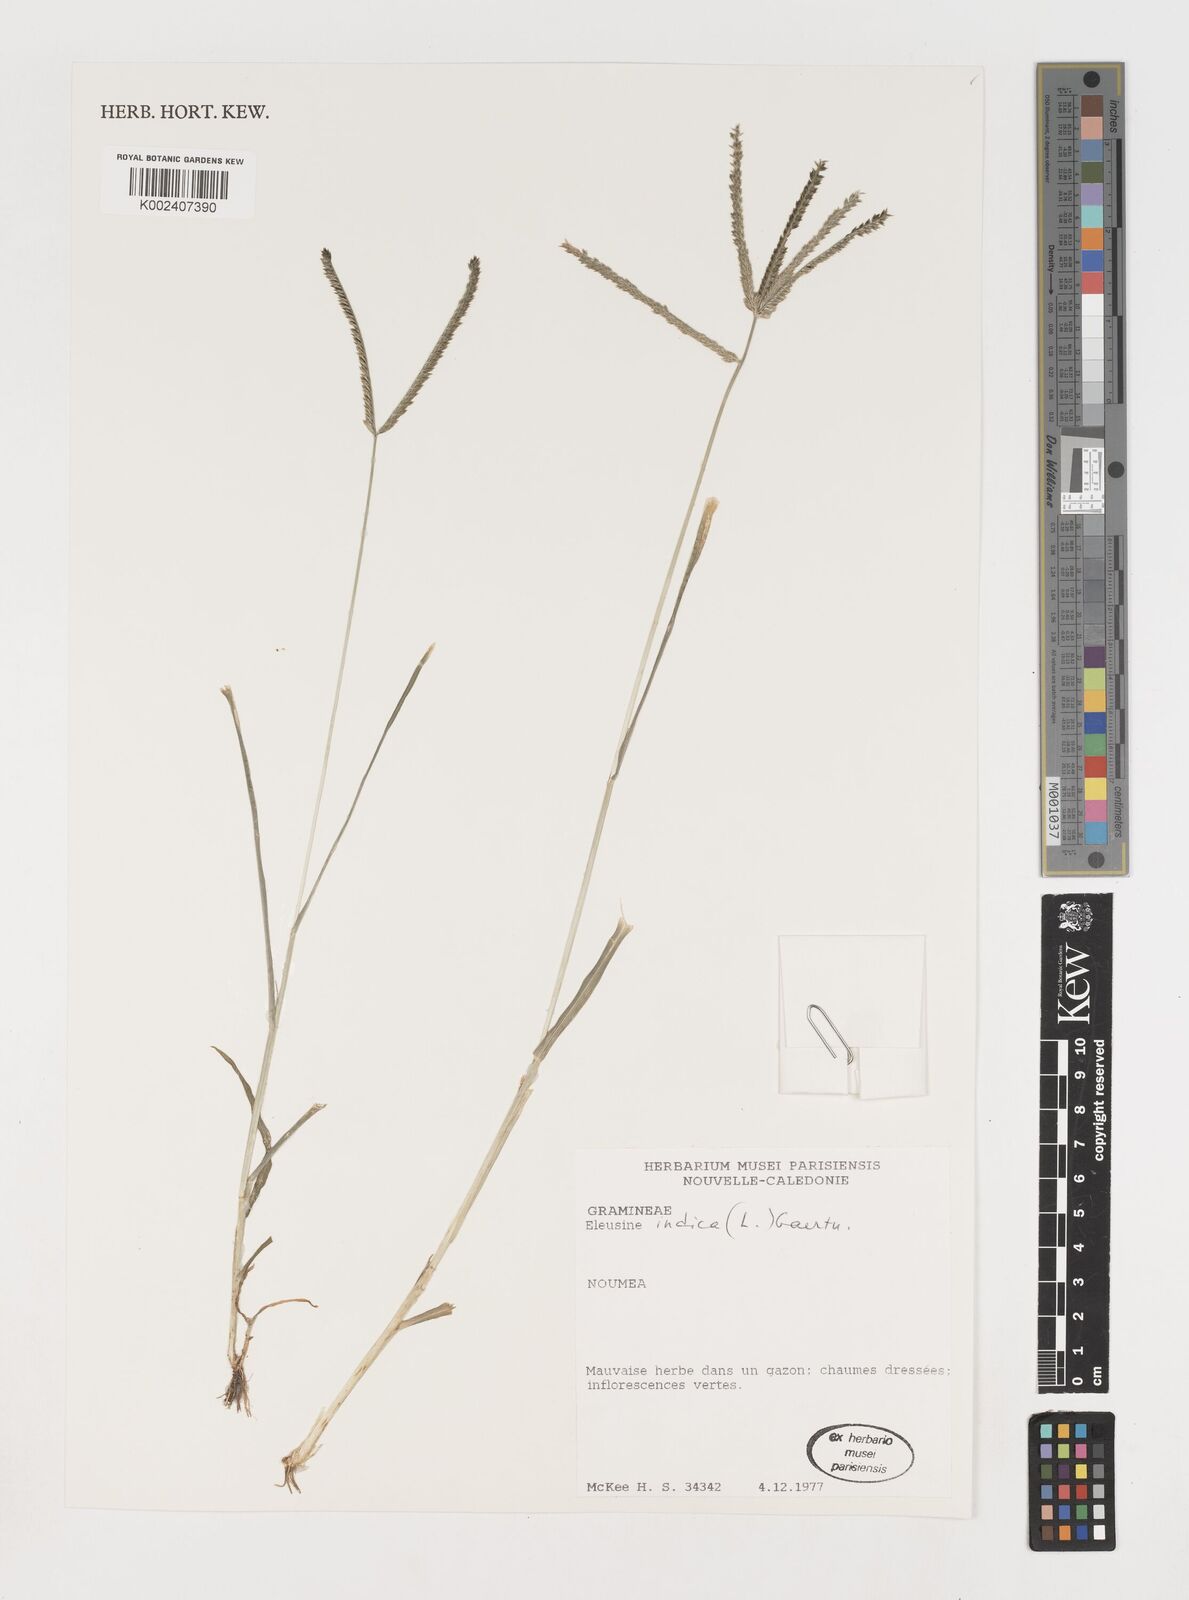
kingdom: Plantae
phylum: Tracheophyta
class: Liliopsida
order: Poales
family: Poaceae
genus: Eleusine
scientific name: Eleusine indica
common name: Yard-grass
